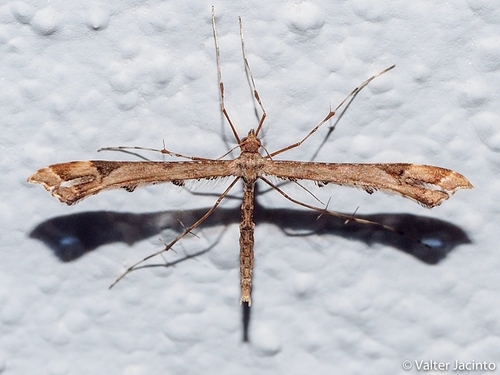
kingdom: Animalia
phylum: Arthropoda
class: Insecta
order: Lepidoptera
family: Pterophoridae
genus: Amblyptilia
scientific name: Amblyptilia acanthadactyla
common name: Beautiful plume
